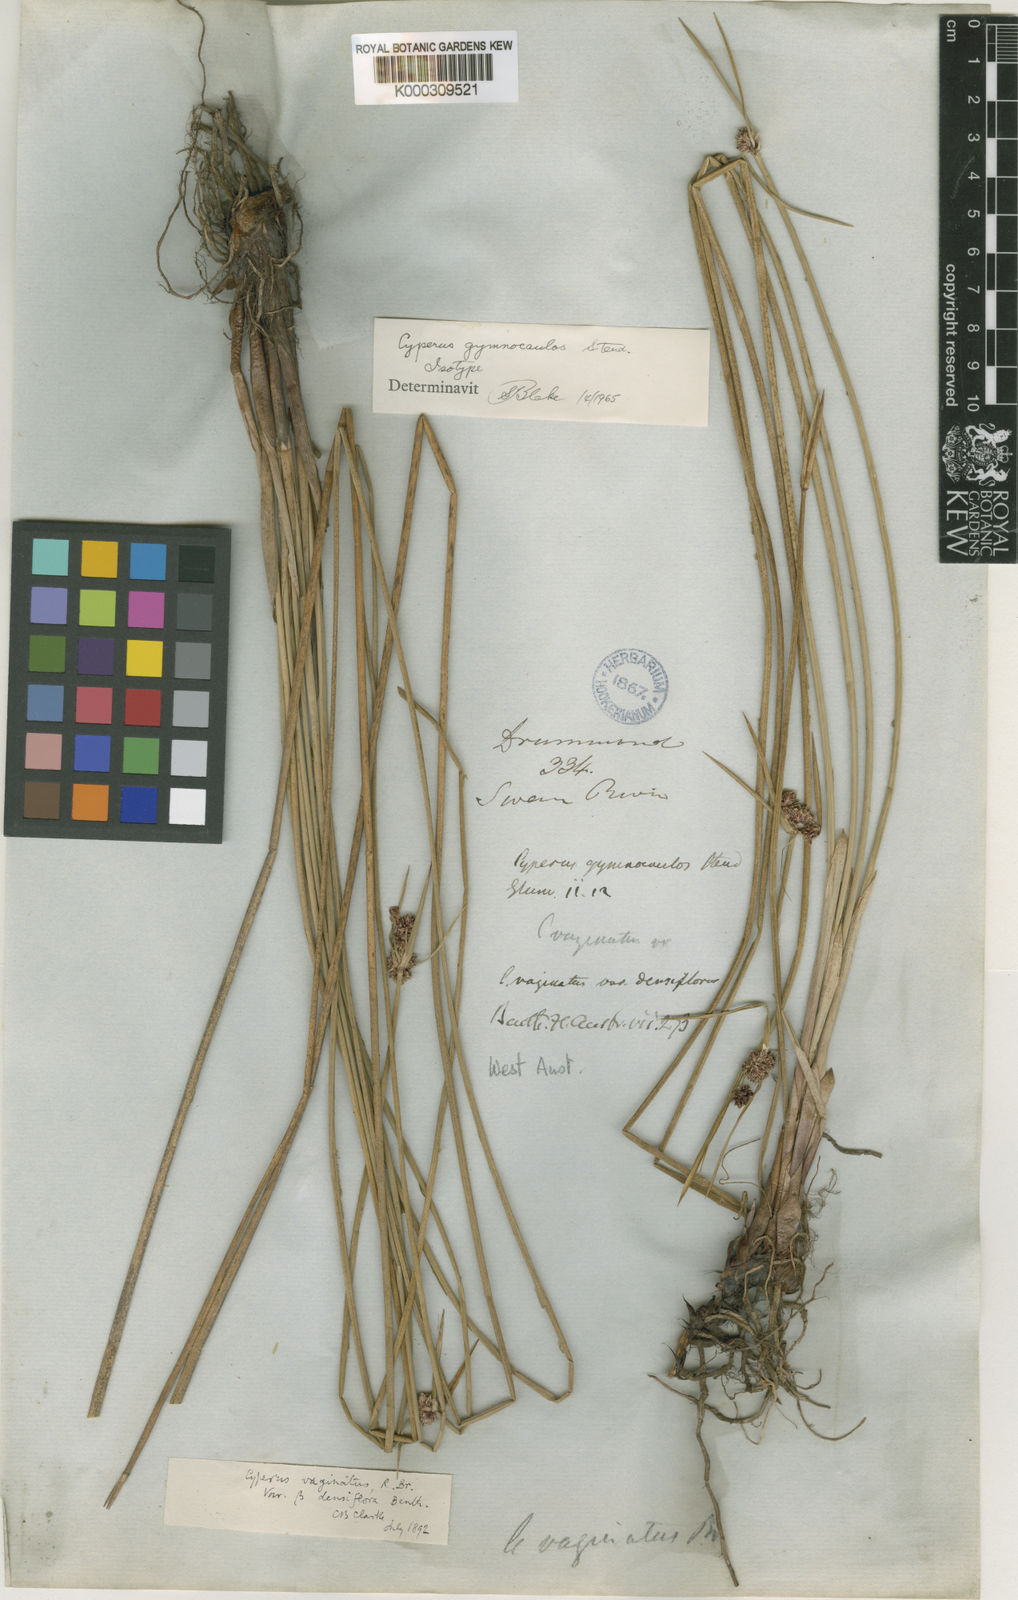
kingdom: Plantae
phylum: Tracheophyta
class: Liliopsida
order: Poales
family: Cyperaceae
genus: Cyperus
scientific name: Cyperus gymnocaulos
